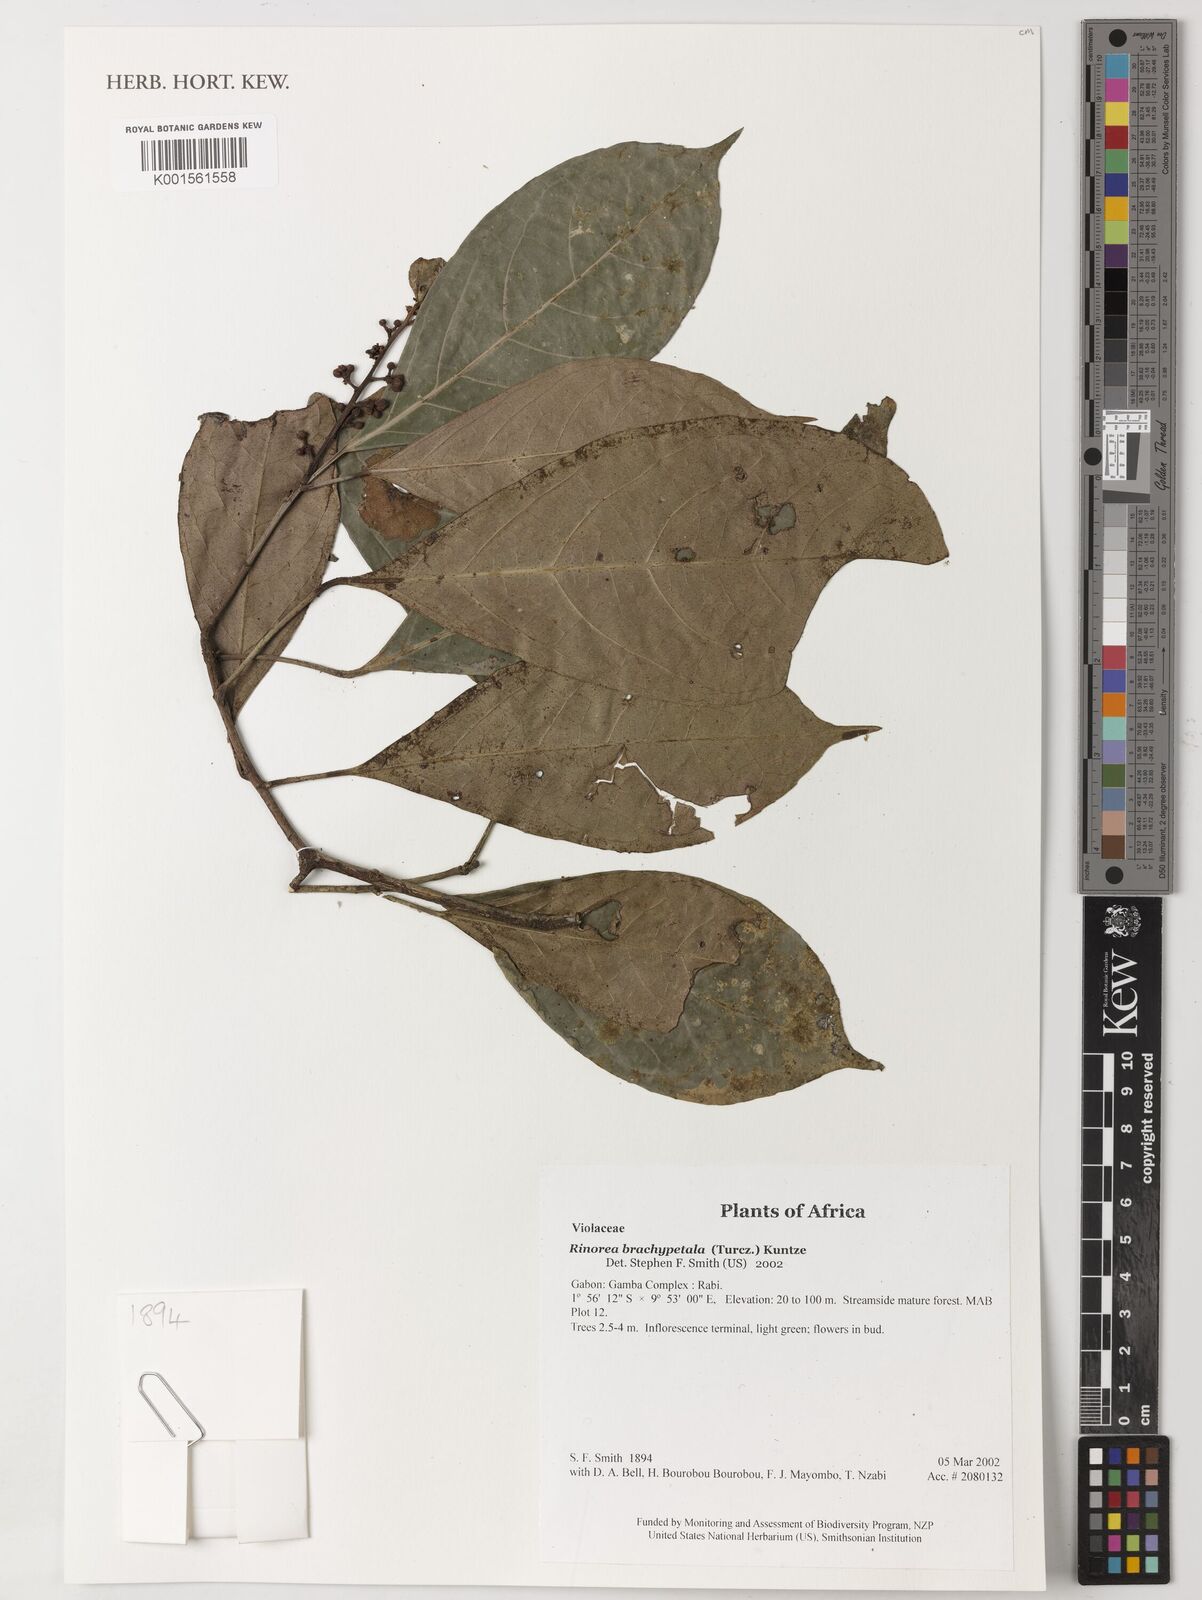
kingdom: Plantae
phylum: Tracheophyta
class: Magnoliopsida
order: Malpighiales
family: Violaceae
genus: Rinorea
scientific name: Rinorea brachypetala
